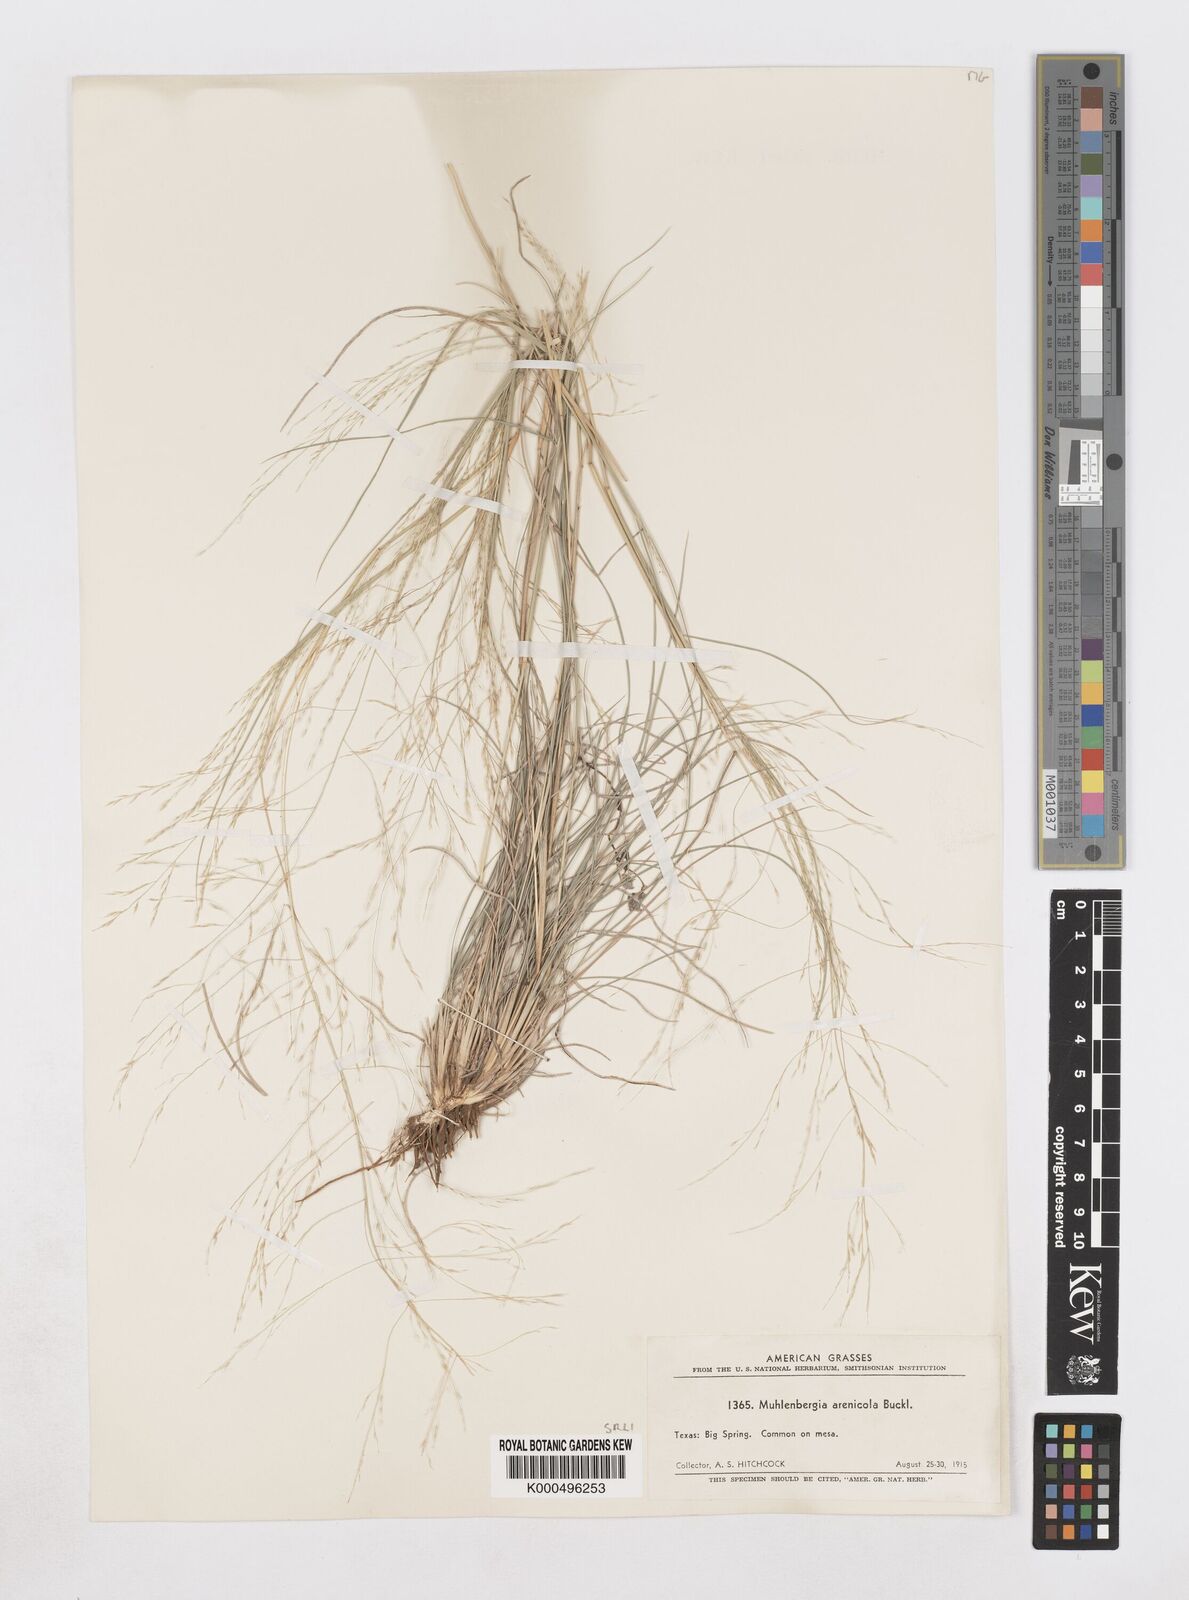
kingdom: Plantae
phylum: Tracheophyta
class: Liliopsida
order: Poales
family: Poaceae
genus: Muhlenbergia
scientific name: Muhlenbergia arenicola
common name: Sand muhly
